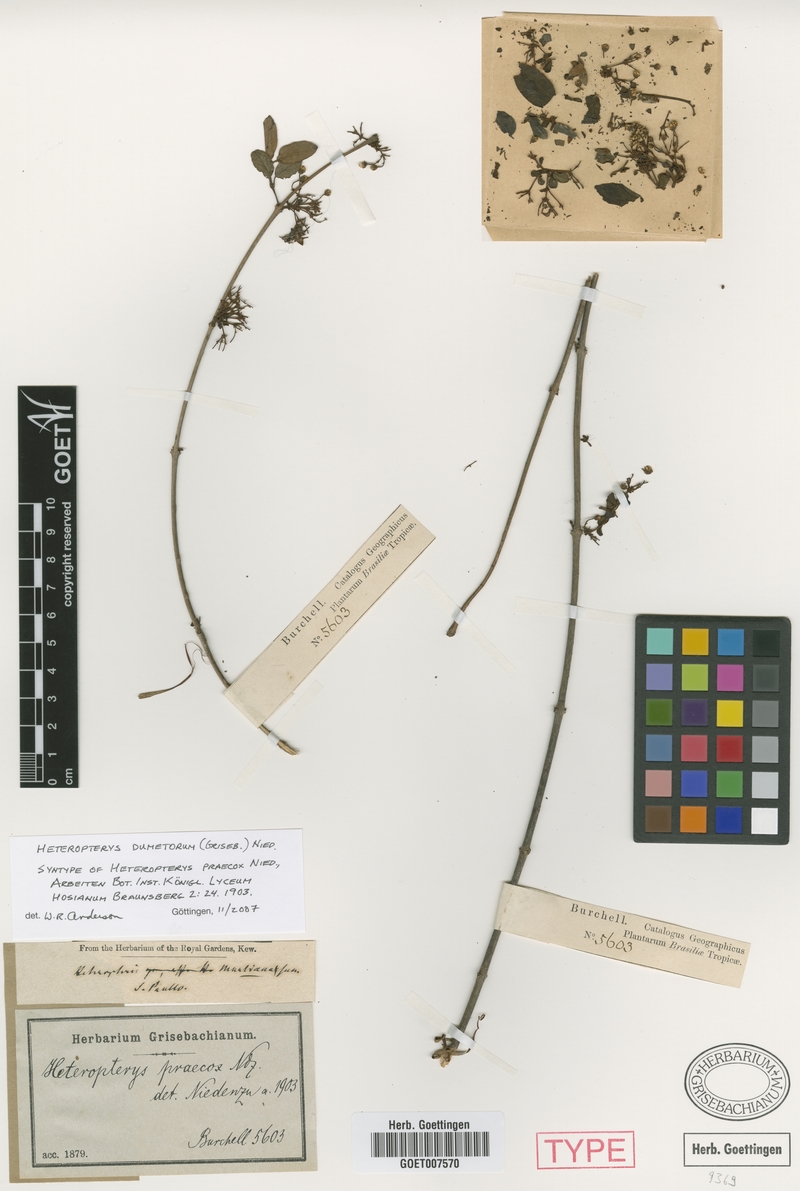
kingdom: Plantae
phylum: Tracheophyta
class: Magnoliopsida
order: Malpighiales
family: Malpighiaceae
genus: Heteropterys
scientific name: Heteropterys dumetorum
